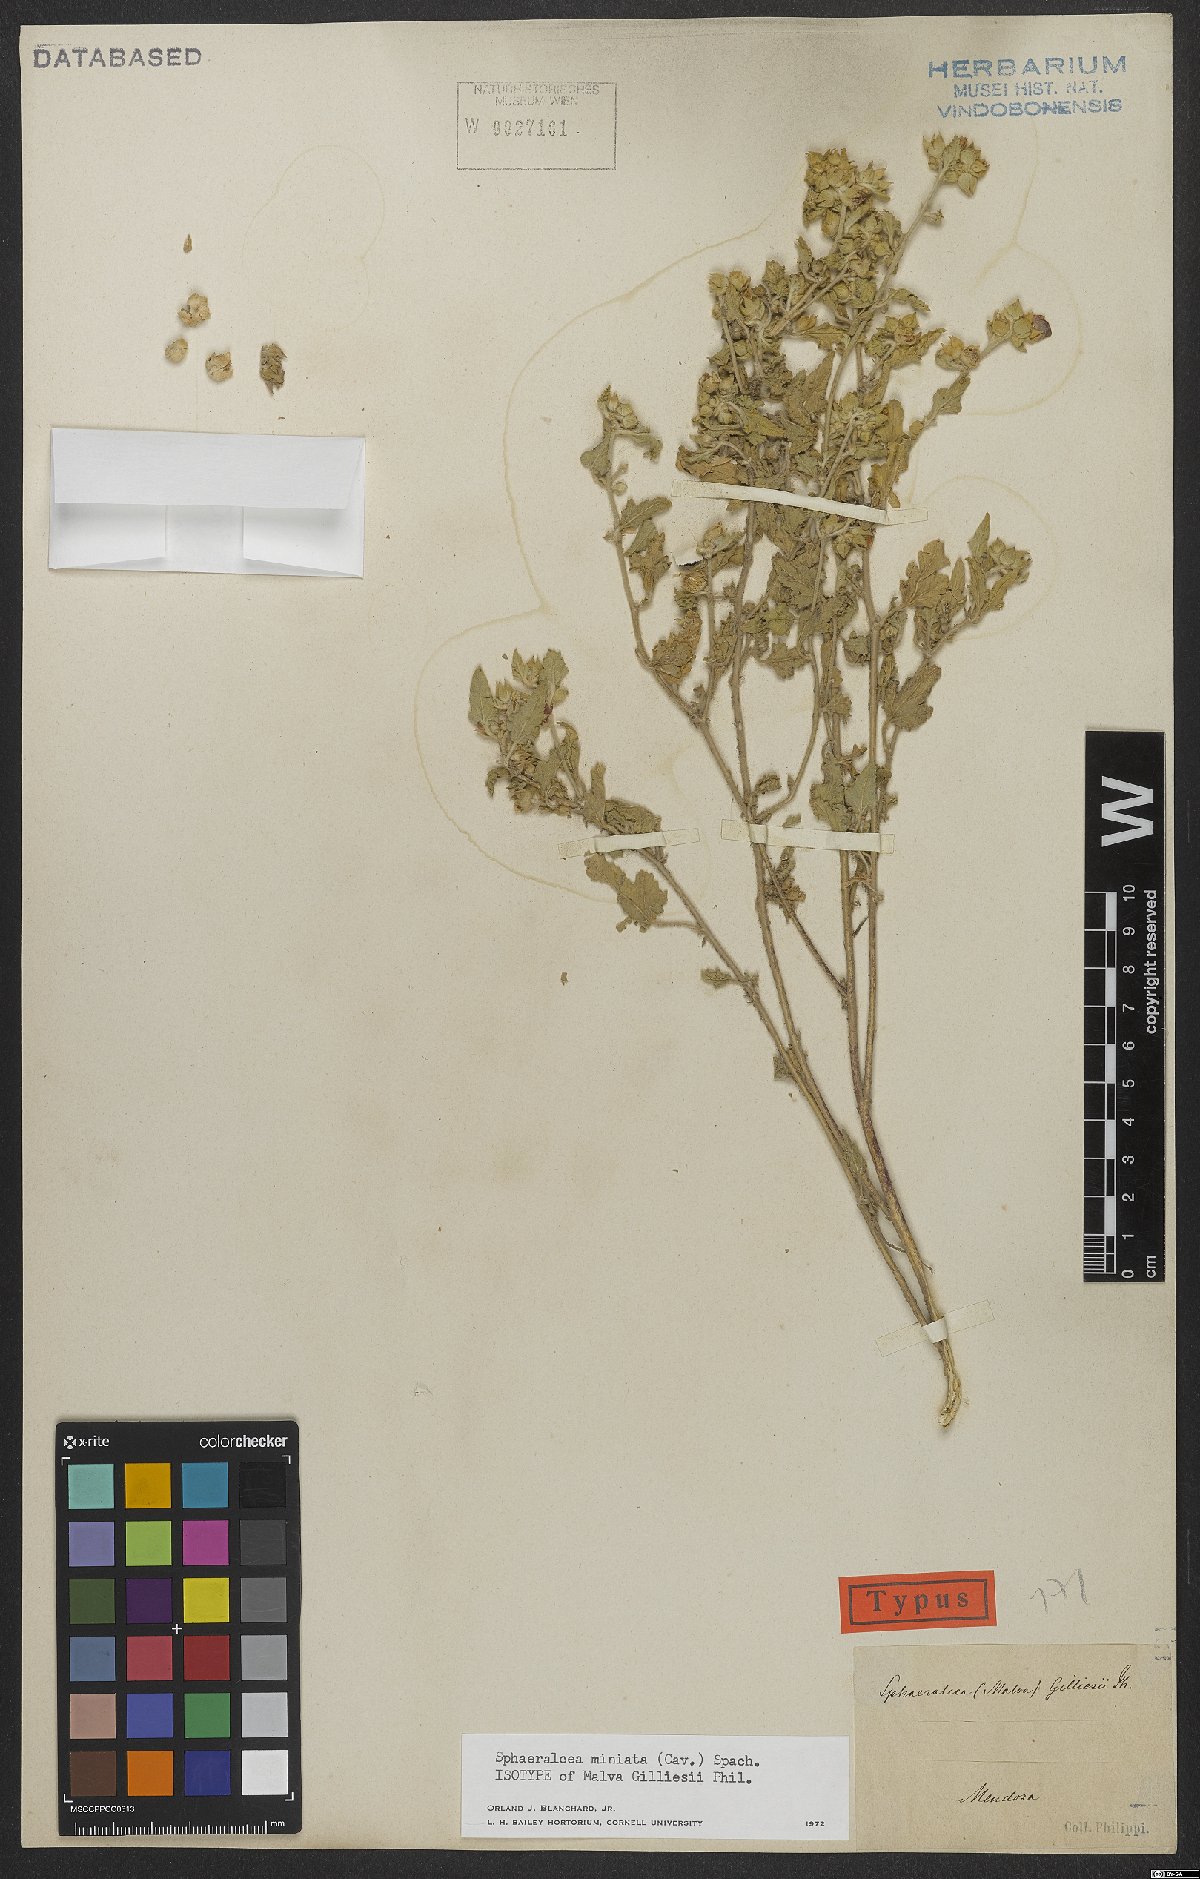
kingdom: Plantae
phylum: Tracheophyta
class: Magnoliopsida
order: Malvales
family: Malvaceae
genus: Sphaeralcea
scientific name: Sphaeralcea miniata
